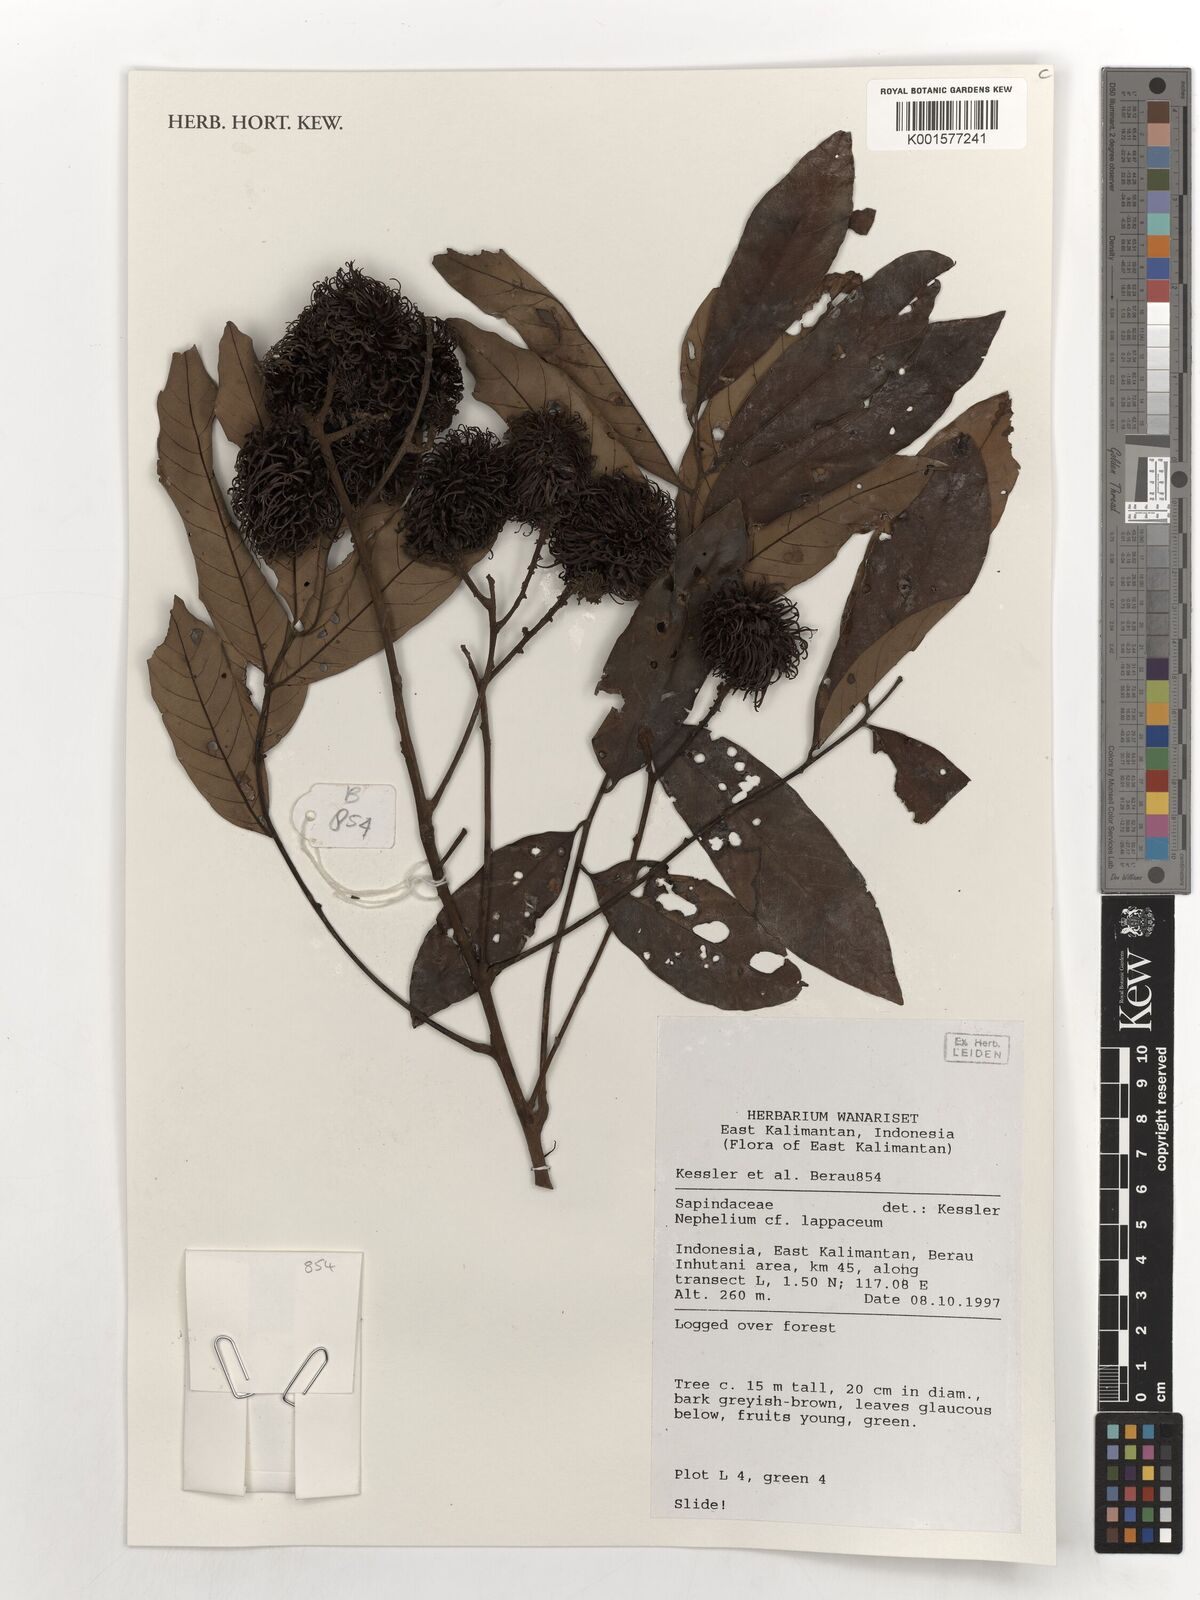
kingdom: Plantae
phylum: Tracheophyta
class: Magnoliopsida
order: Sapindales
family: Sapindaceae
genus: Nephelium
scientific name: Nephelium lappaceum
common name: Rambutan
